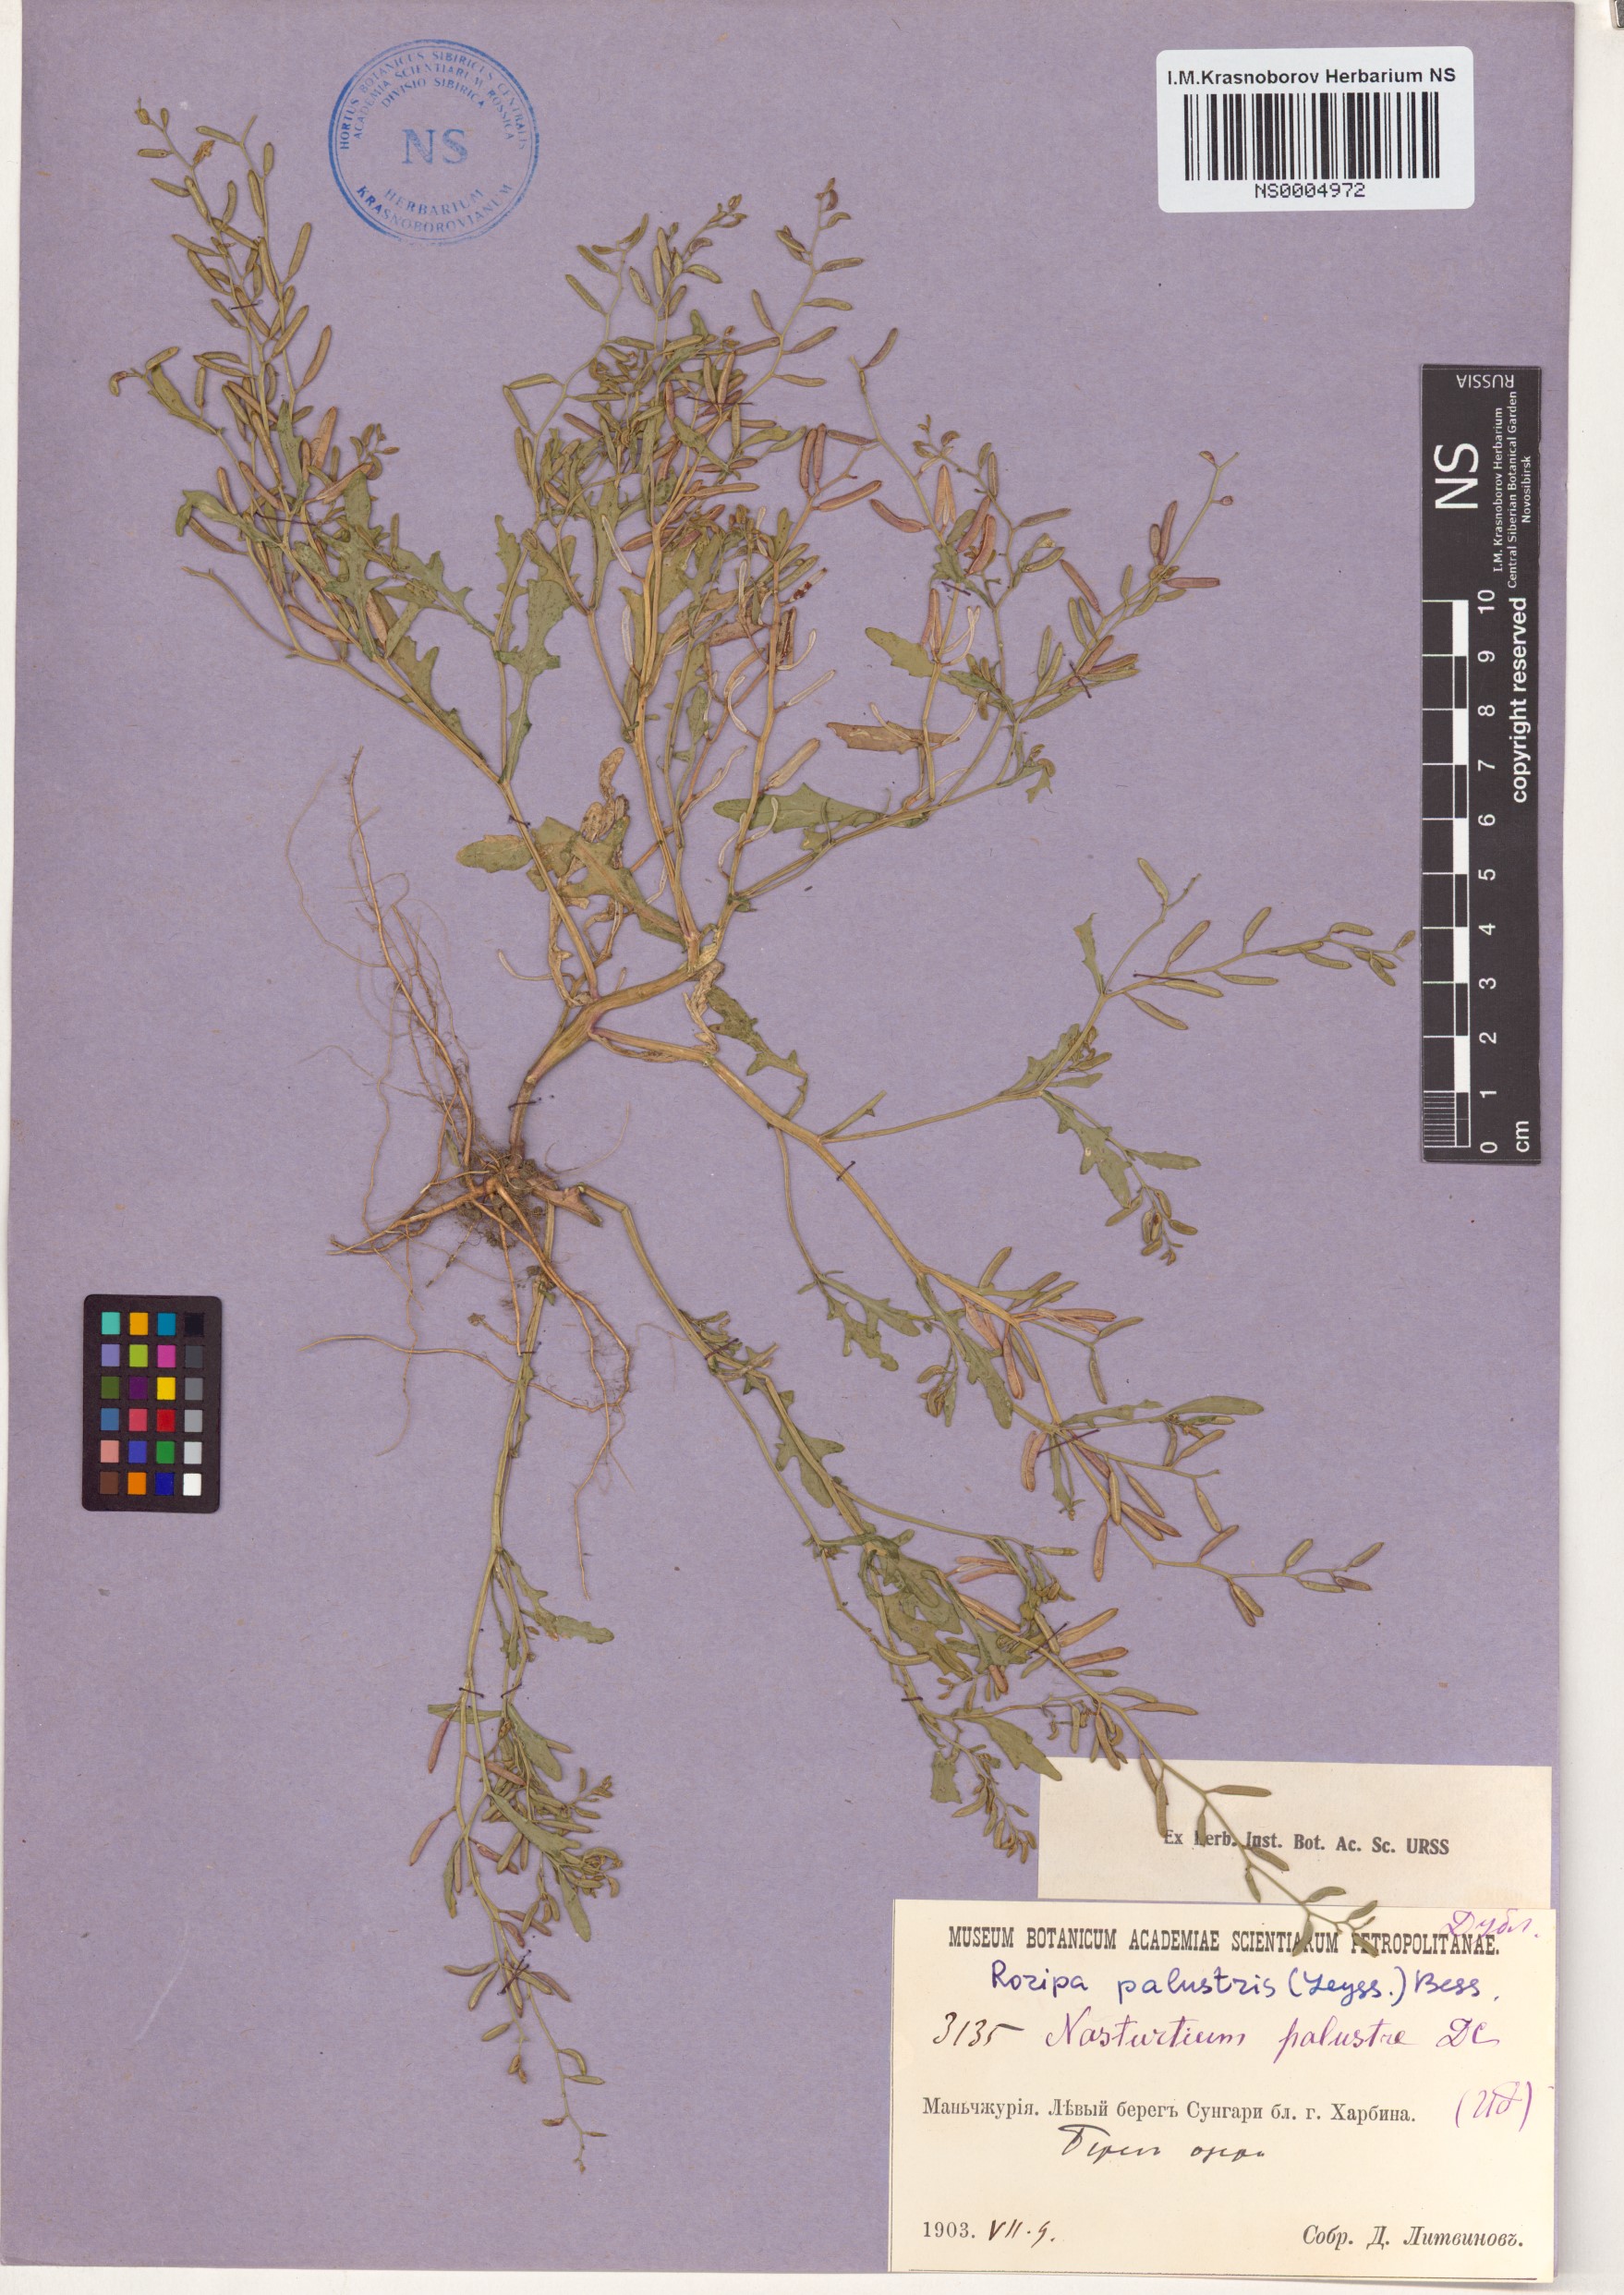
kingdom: Plantae
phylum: Tracheophyta
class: Magnoliopsida
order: Brassicales
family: Brassicaceae
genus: Rorippa
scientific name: Rorippa palustris
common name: Marsh yellow-cress
